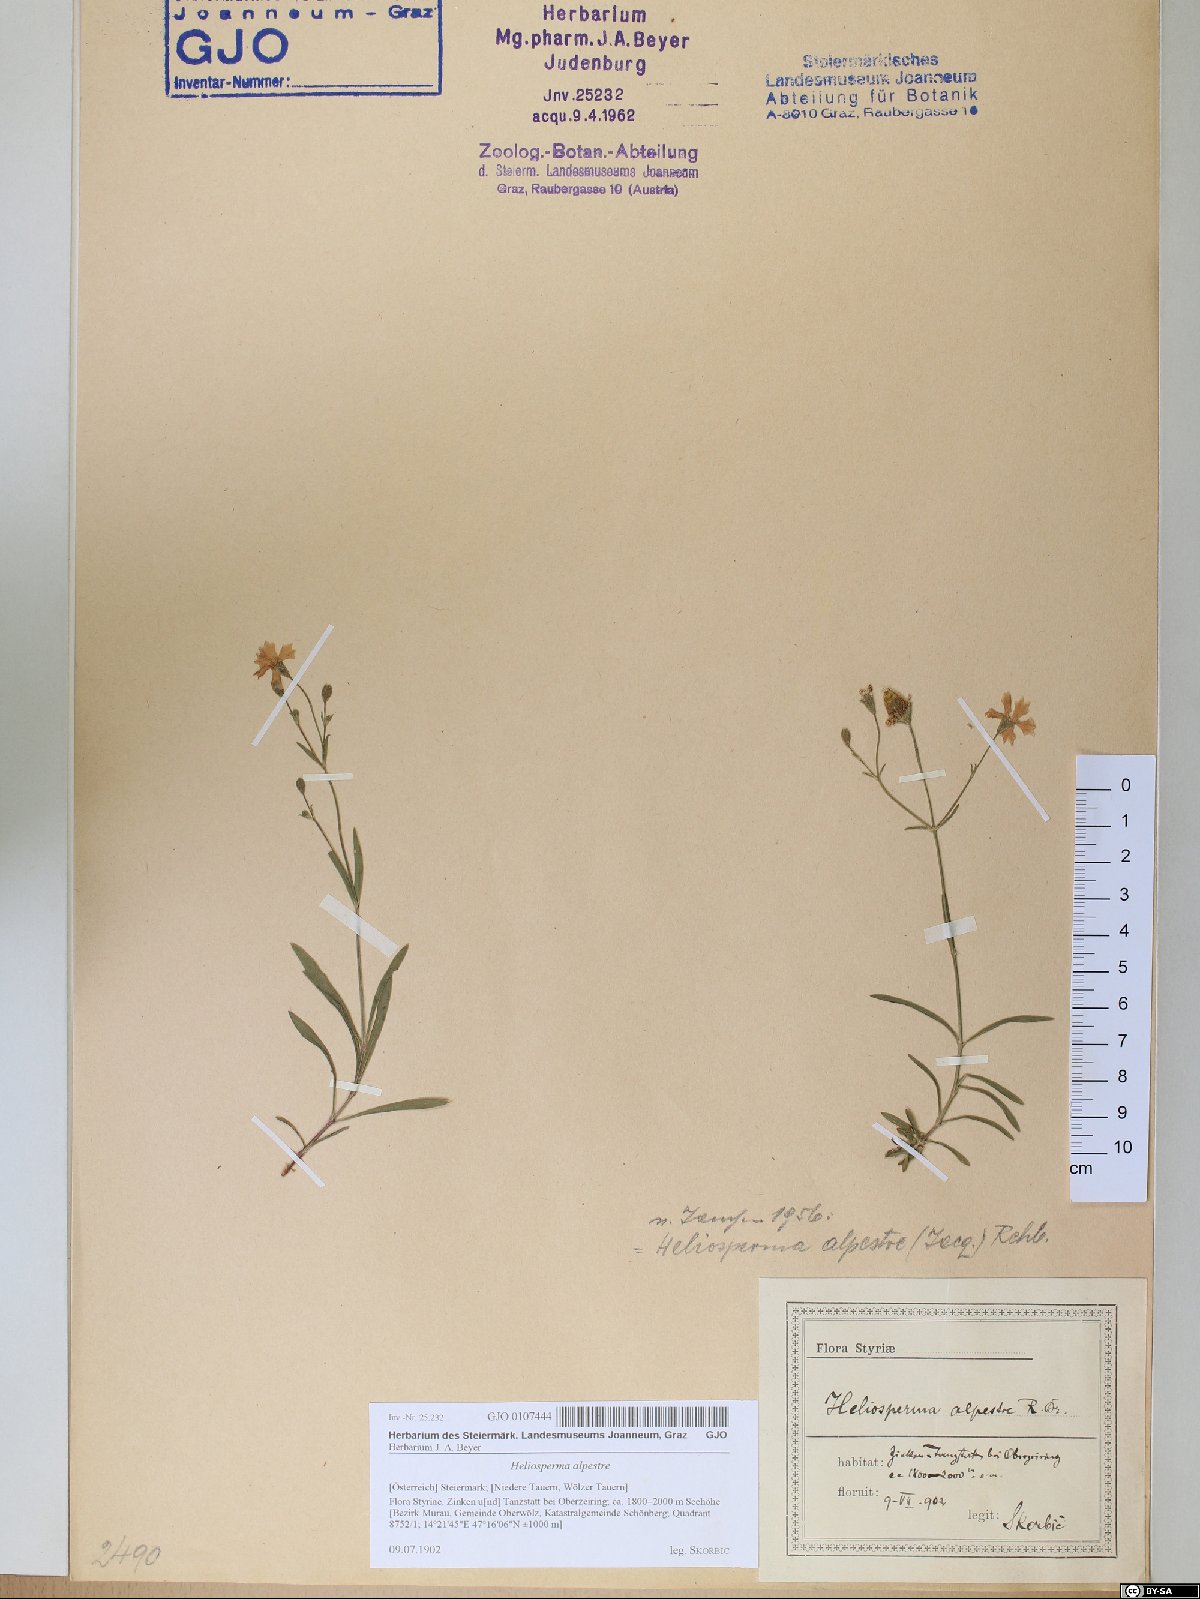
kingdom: Plantae
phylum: Tracheophyta
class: Magnoliopsida
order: Caryophyllales
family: Caryophyllaceae
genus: Heliosperma
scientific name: Heliosperma alpestre
